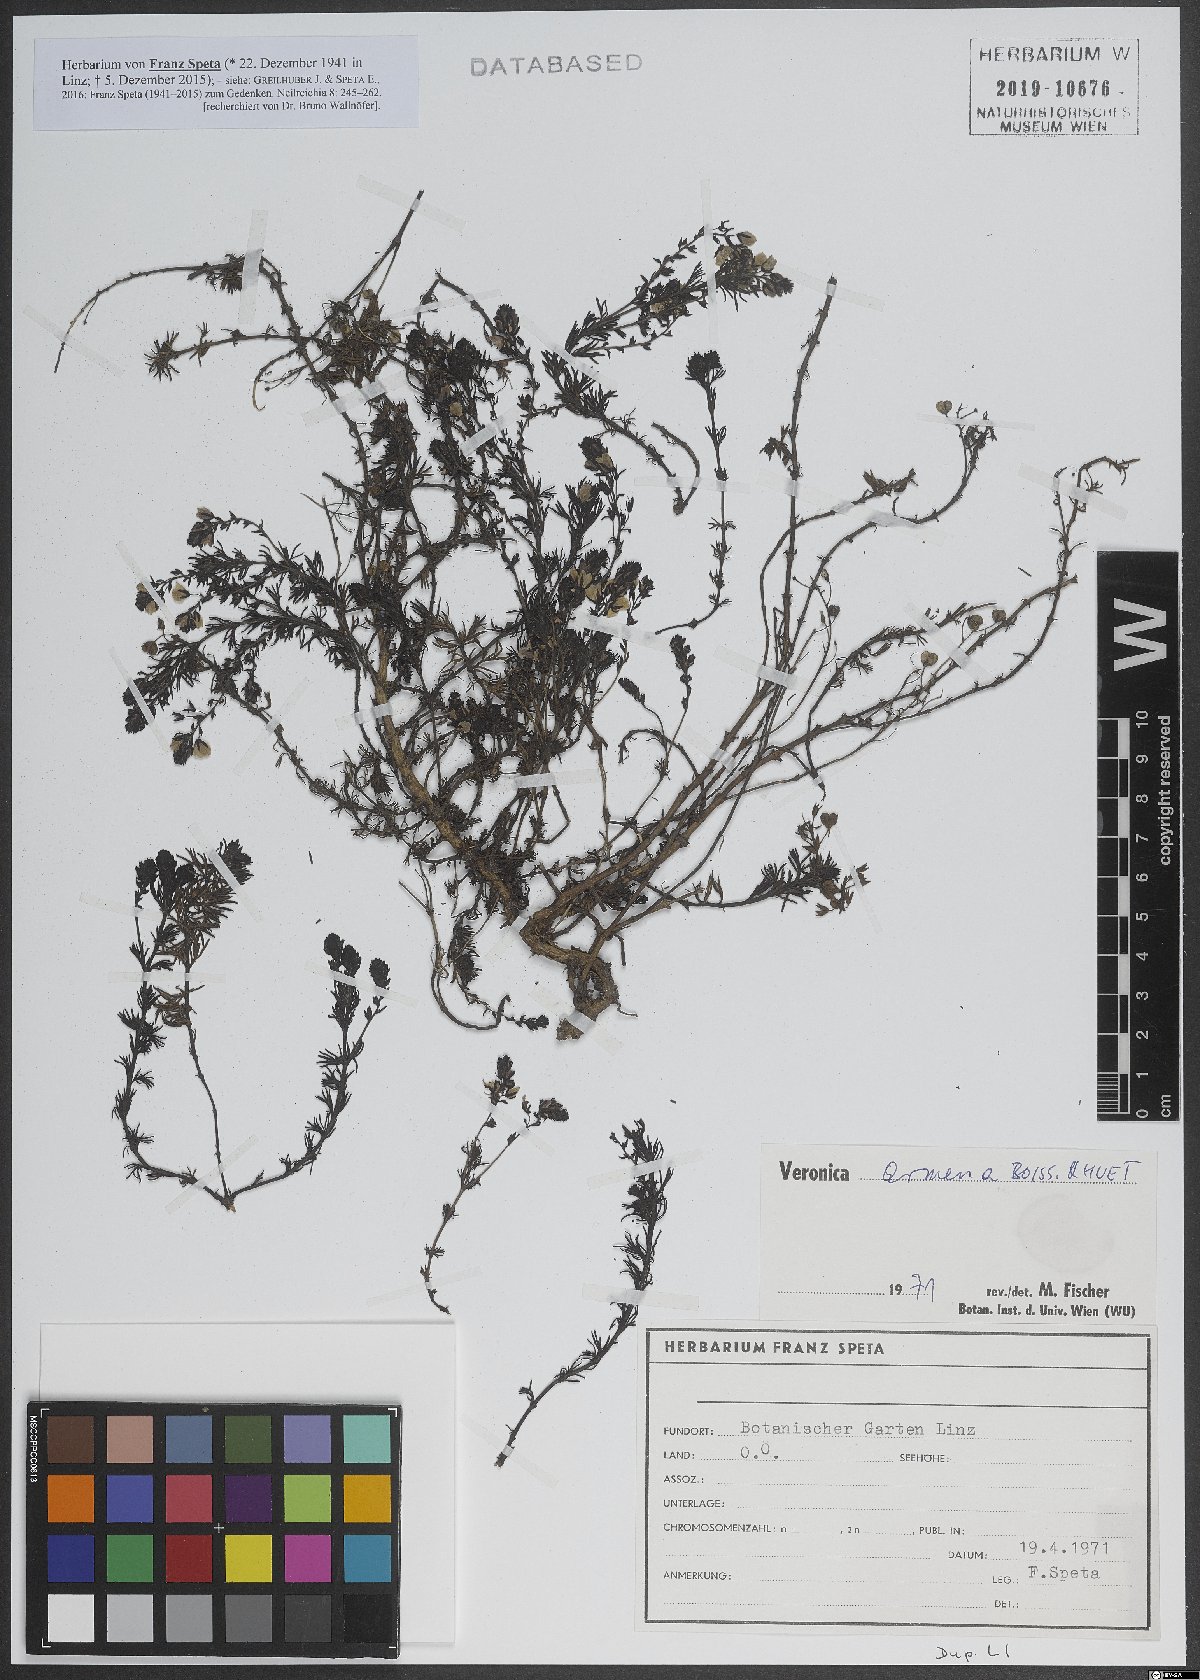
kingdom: Plantae
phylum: Tracheophyta
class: Magnoliopsida
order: Lamiales
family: Plantaginaceae
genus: Veronica
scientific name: Veronica armena
